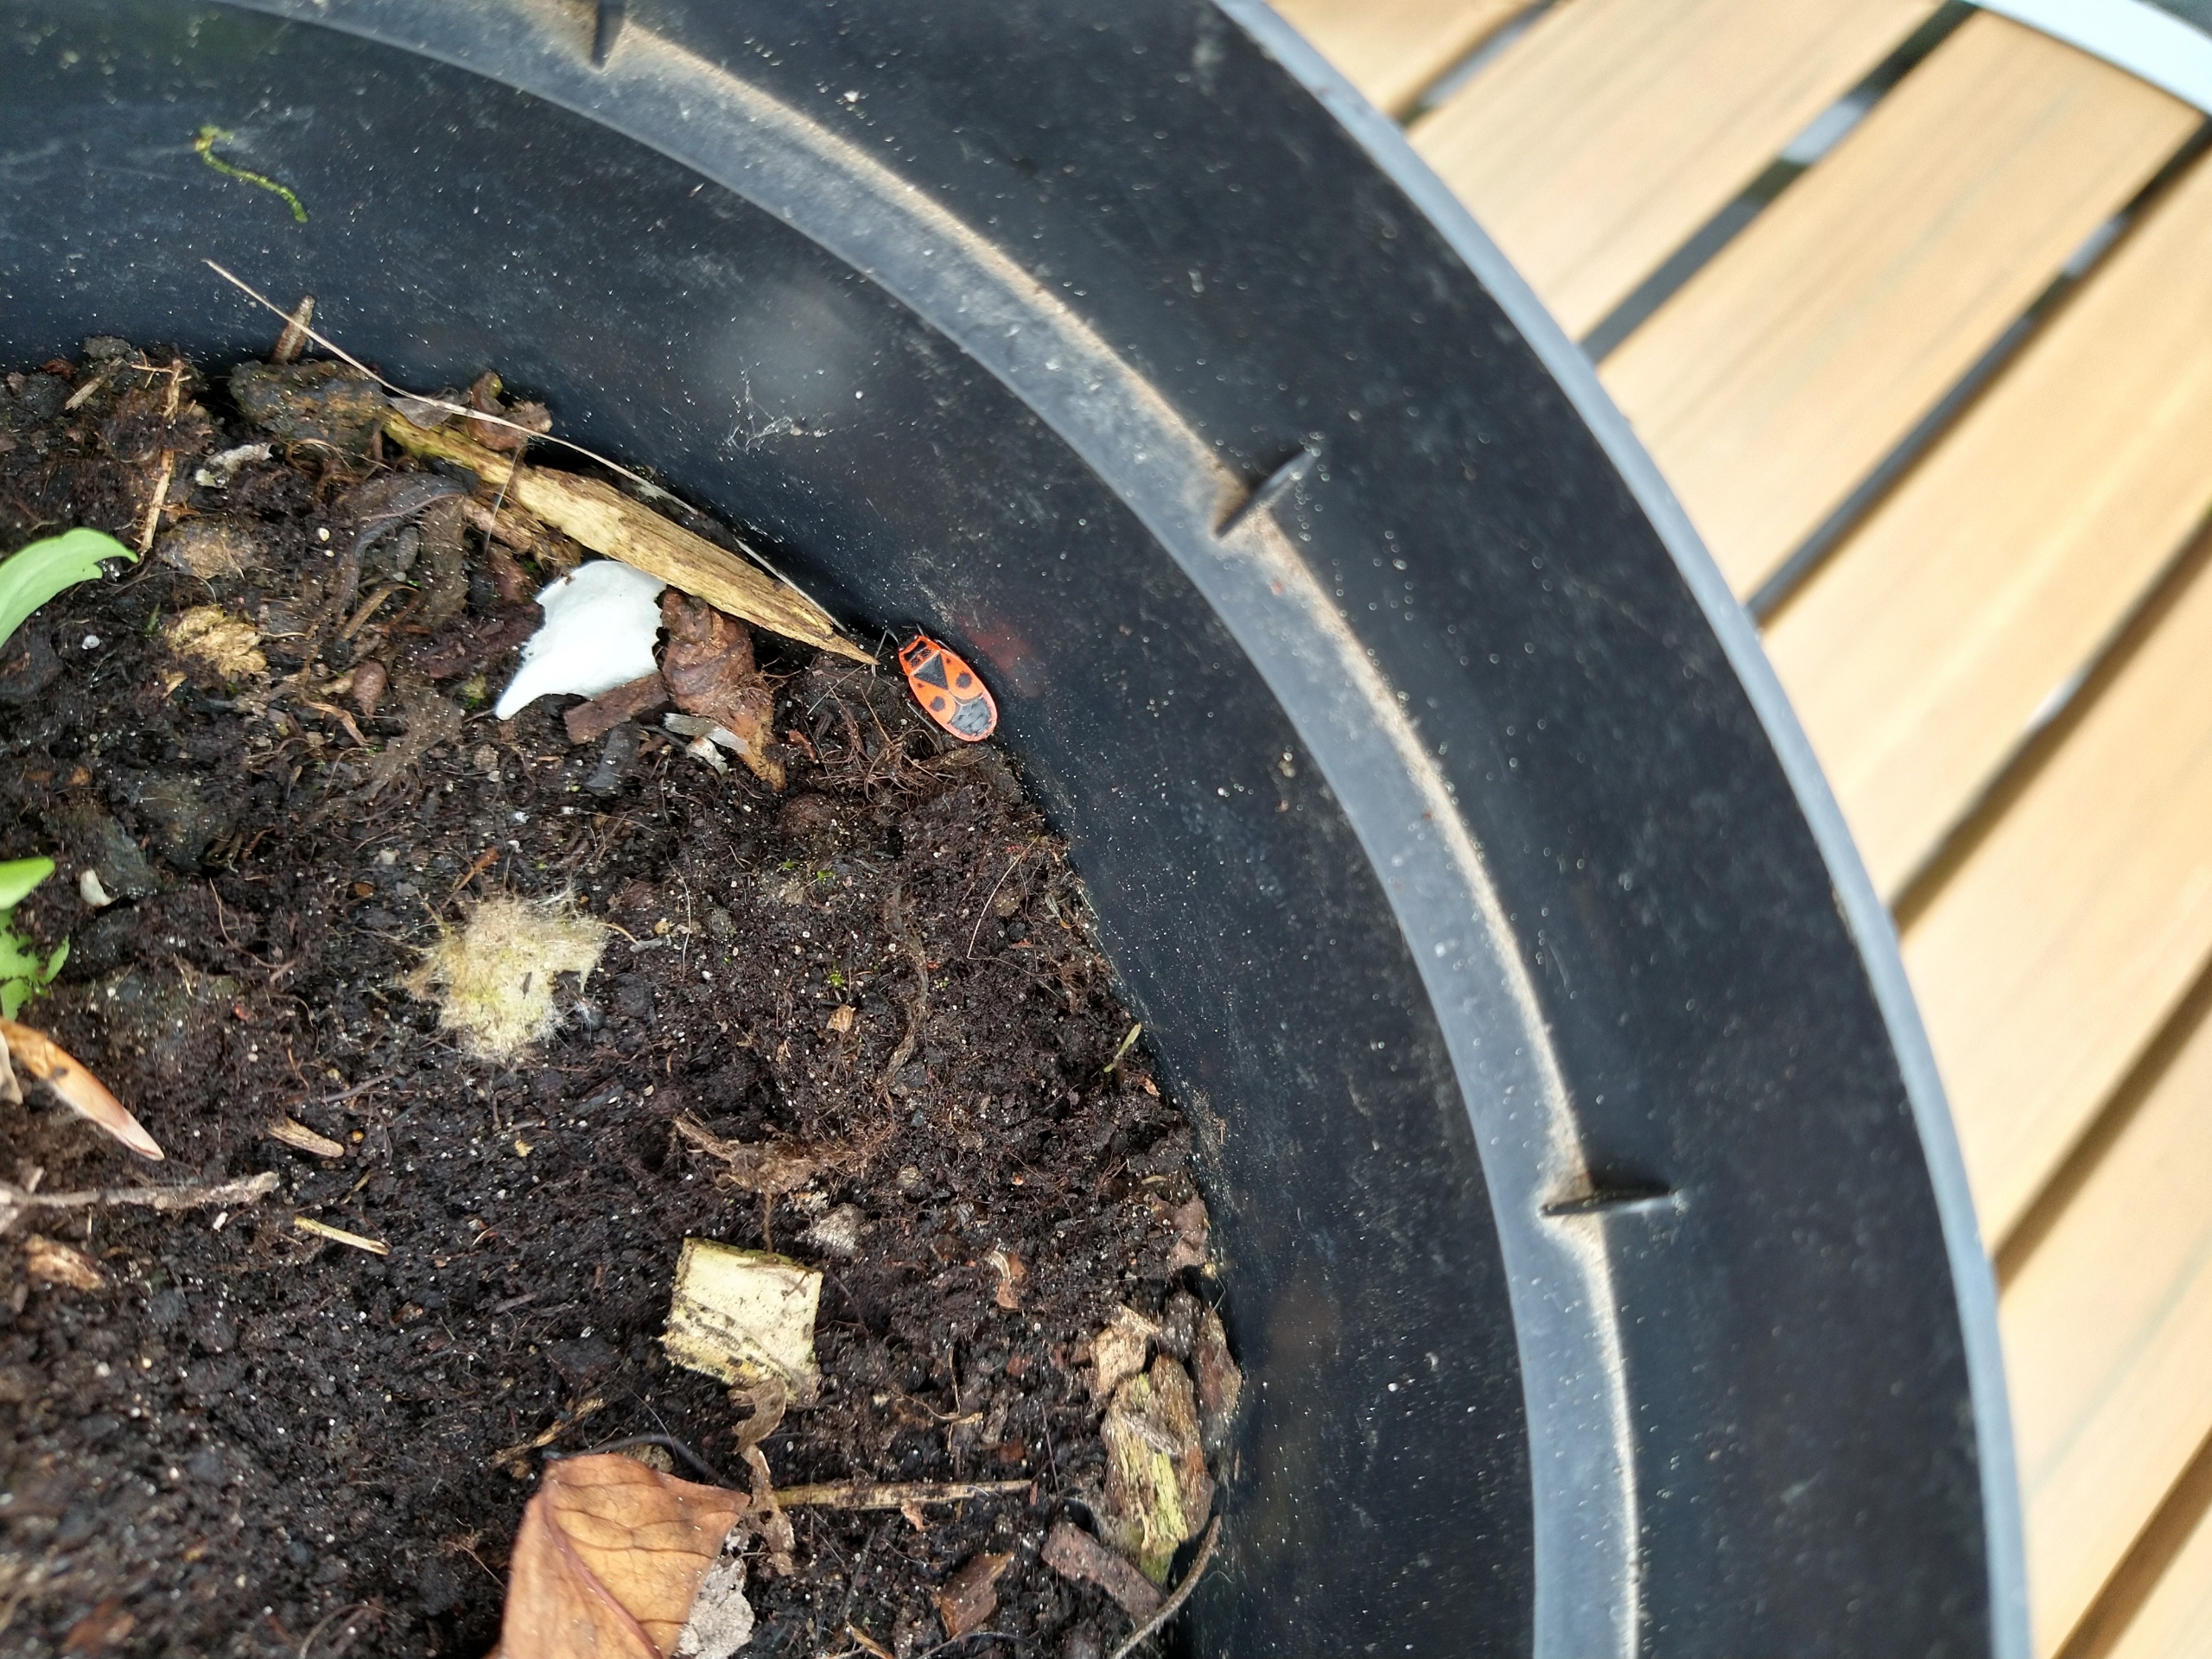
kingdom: Animalia
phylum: Arthropoda
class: Insecta
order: Hemiptera
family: Pyrrhocoridae
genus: Pyrrhocoris
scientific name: Pyrrhocoris apterus
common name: Ildtæge
